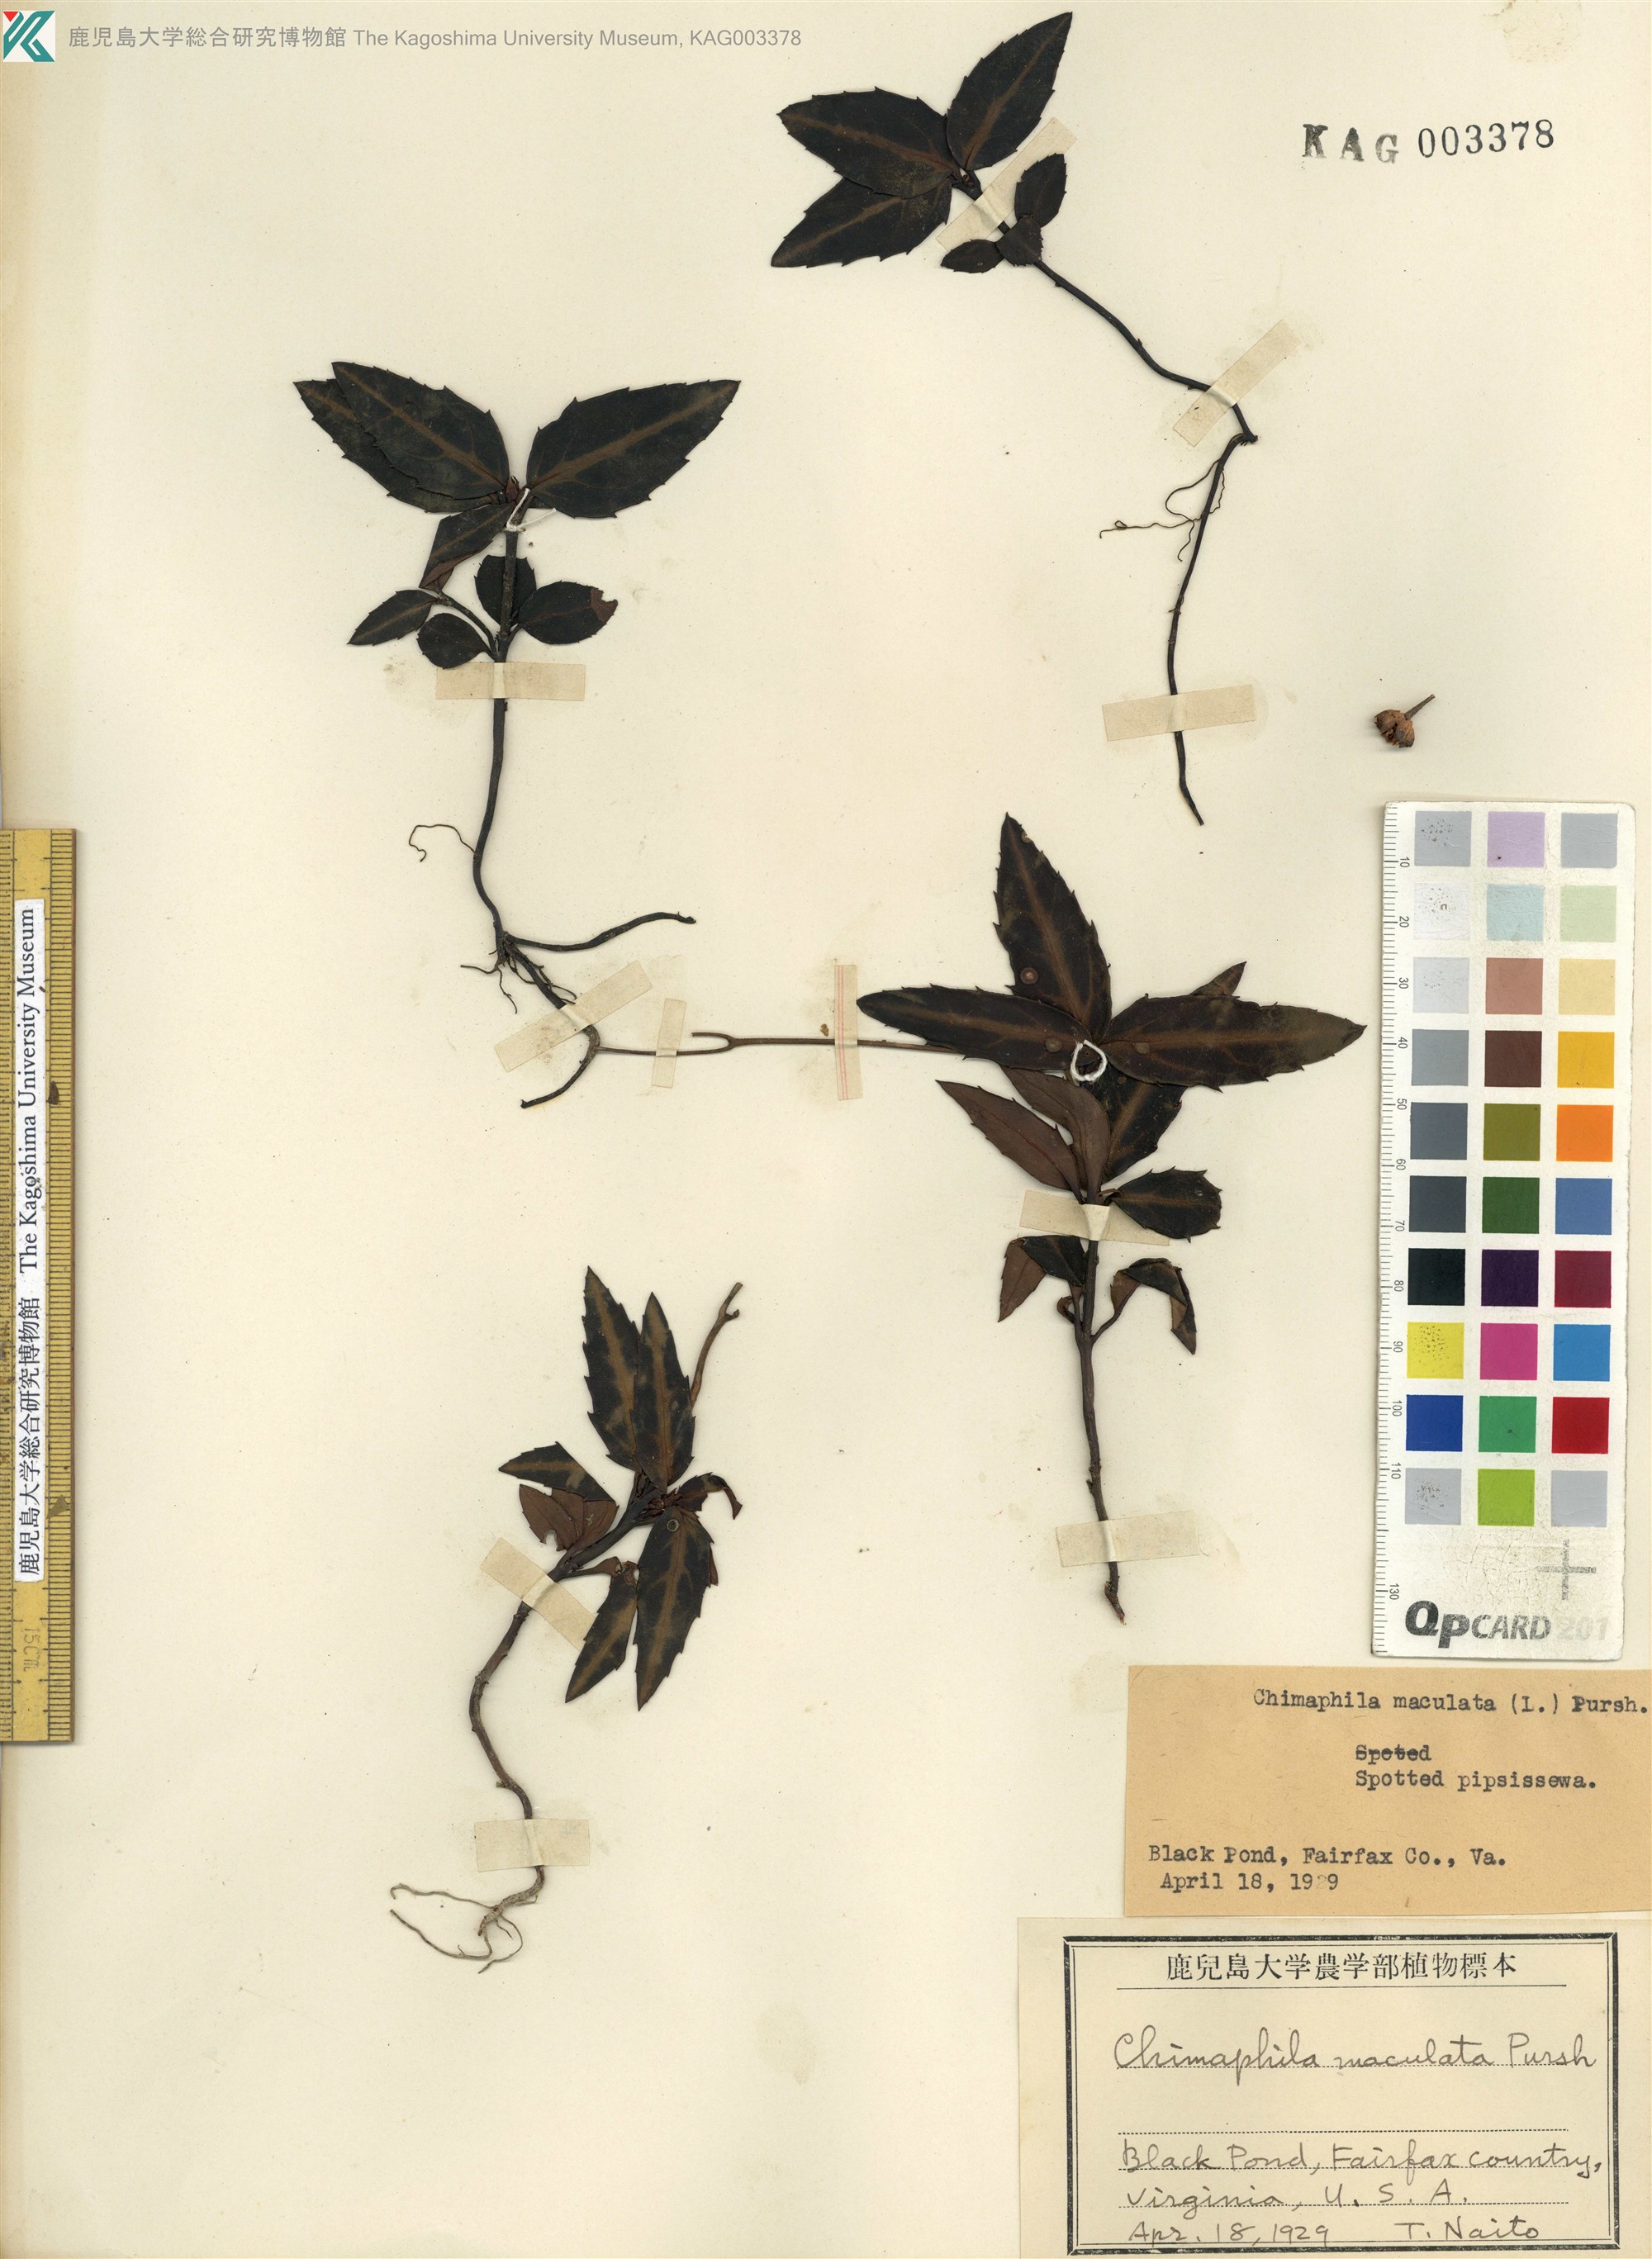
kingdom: Plantae
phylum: Tracheophyta
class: Magnoliopsida
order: Ericales
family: Ericaceae
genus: Chimaphila
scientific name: Chimaphila maculata
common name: Spotted pipsissewa
